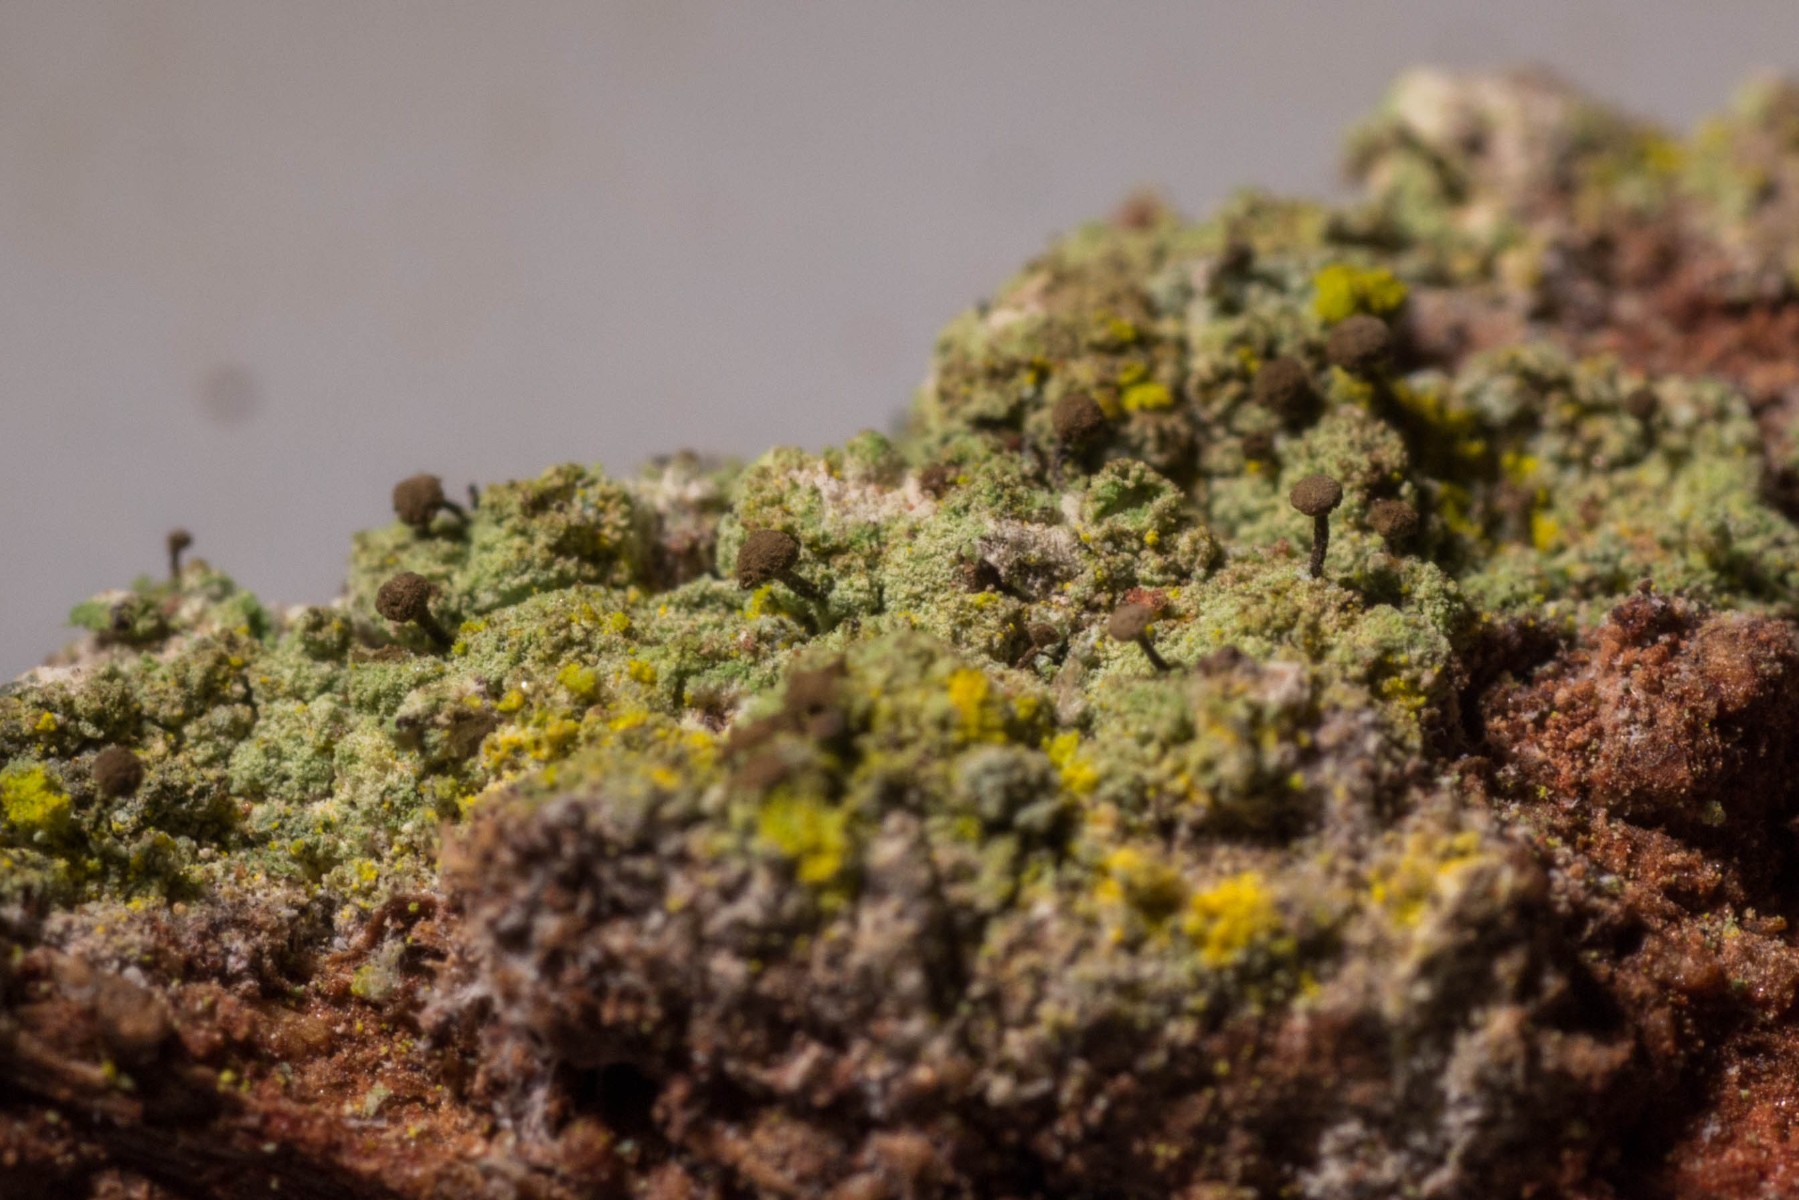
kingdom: Fungi
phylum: Ascomycota
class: Coniocybomycetes
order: Coniocybales
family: Coniocybaceae
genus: Chaenotheca
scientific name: Chaenotheca stemonea
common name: melet knappenålslav
